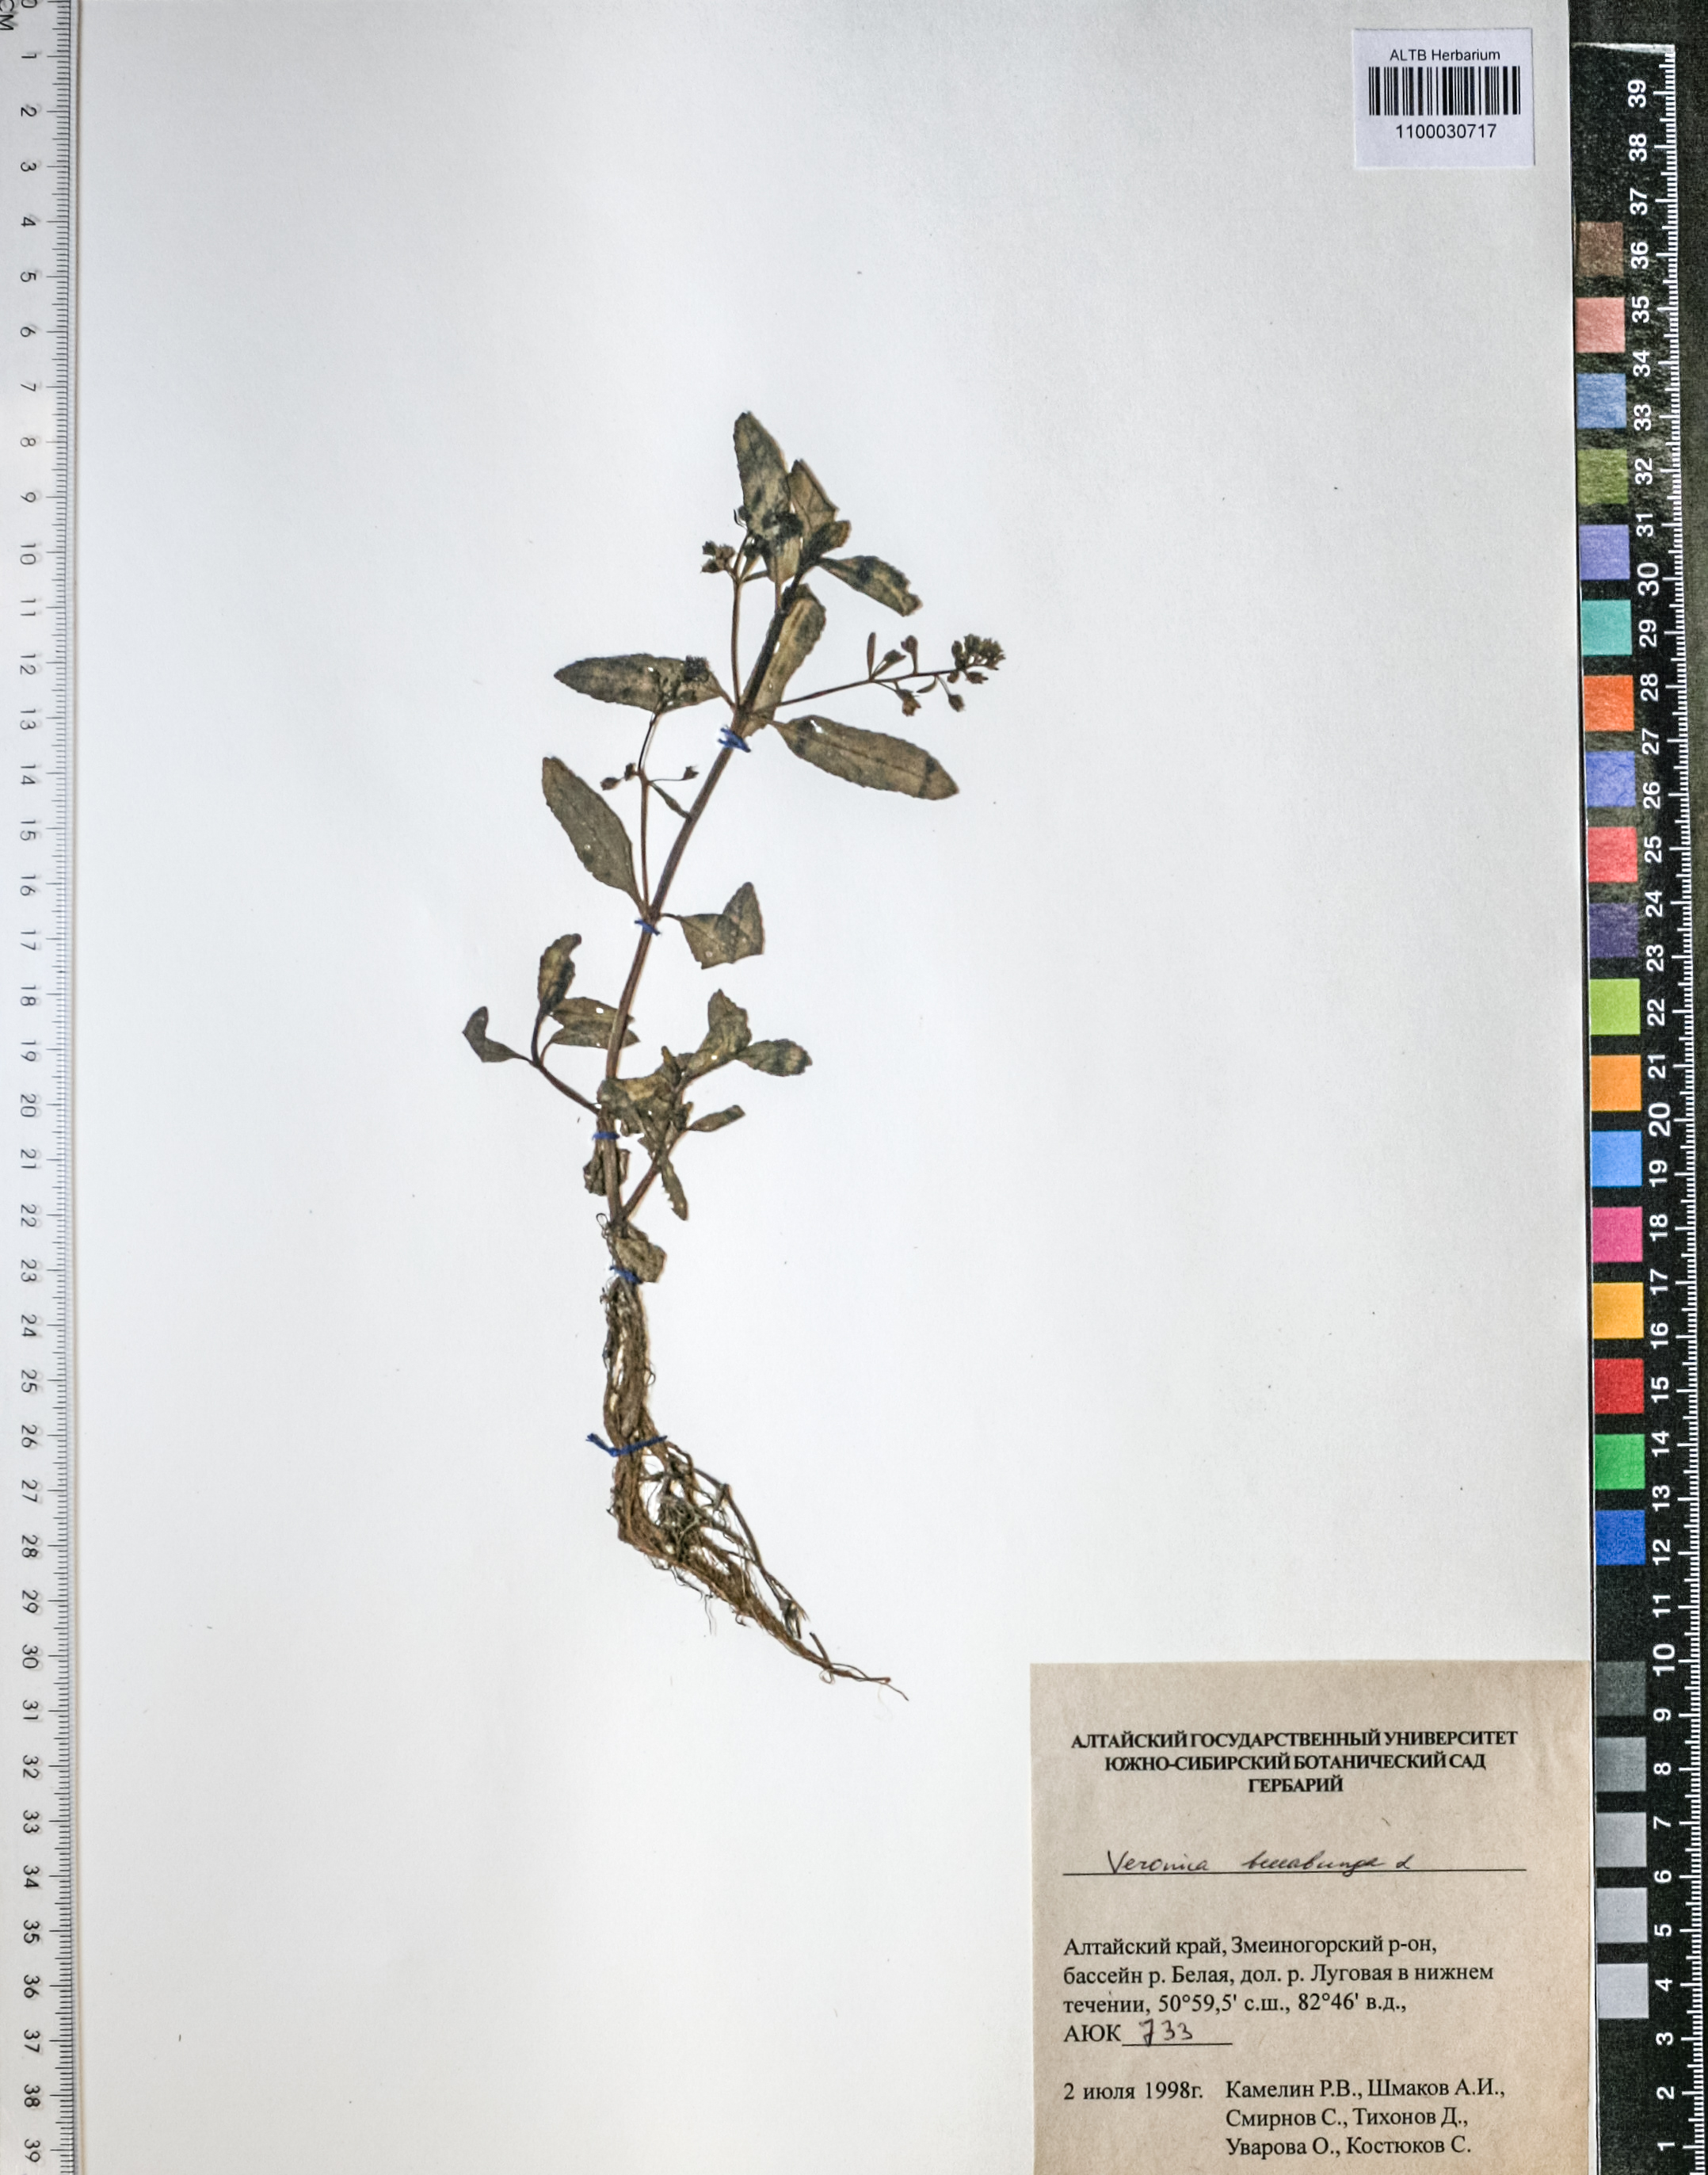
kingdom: Plantae
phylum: Tracheophyta
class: Magnoliopsida
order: Lamiales
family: Plantaginaceae
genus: Veronica
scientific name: Veronica beccabunga
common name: Brooklime
